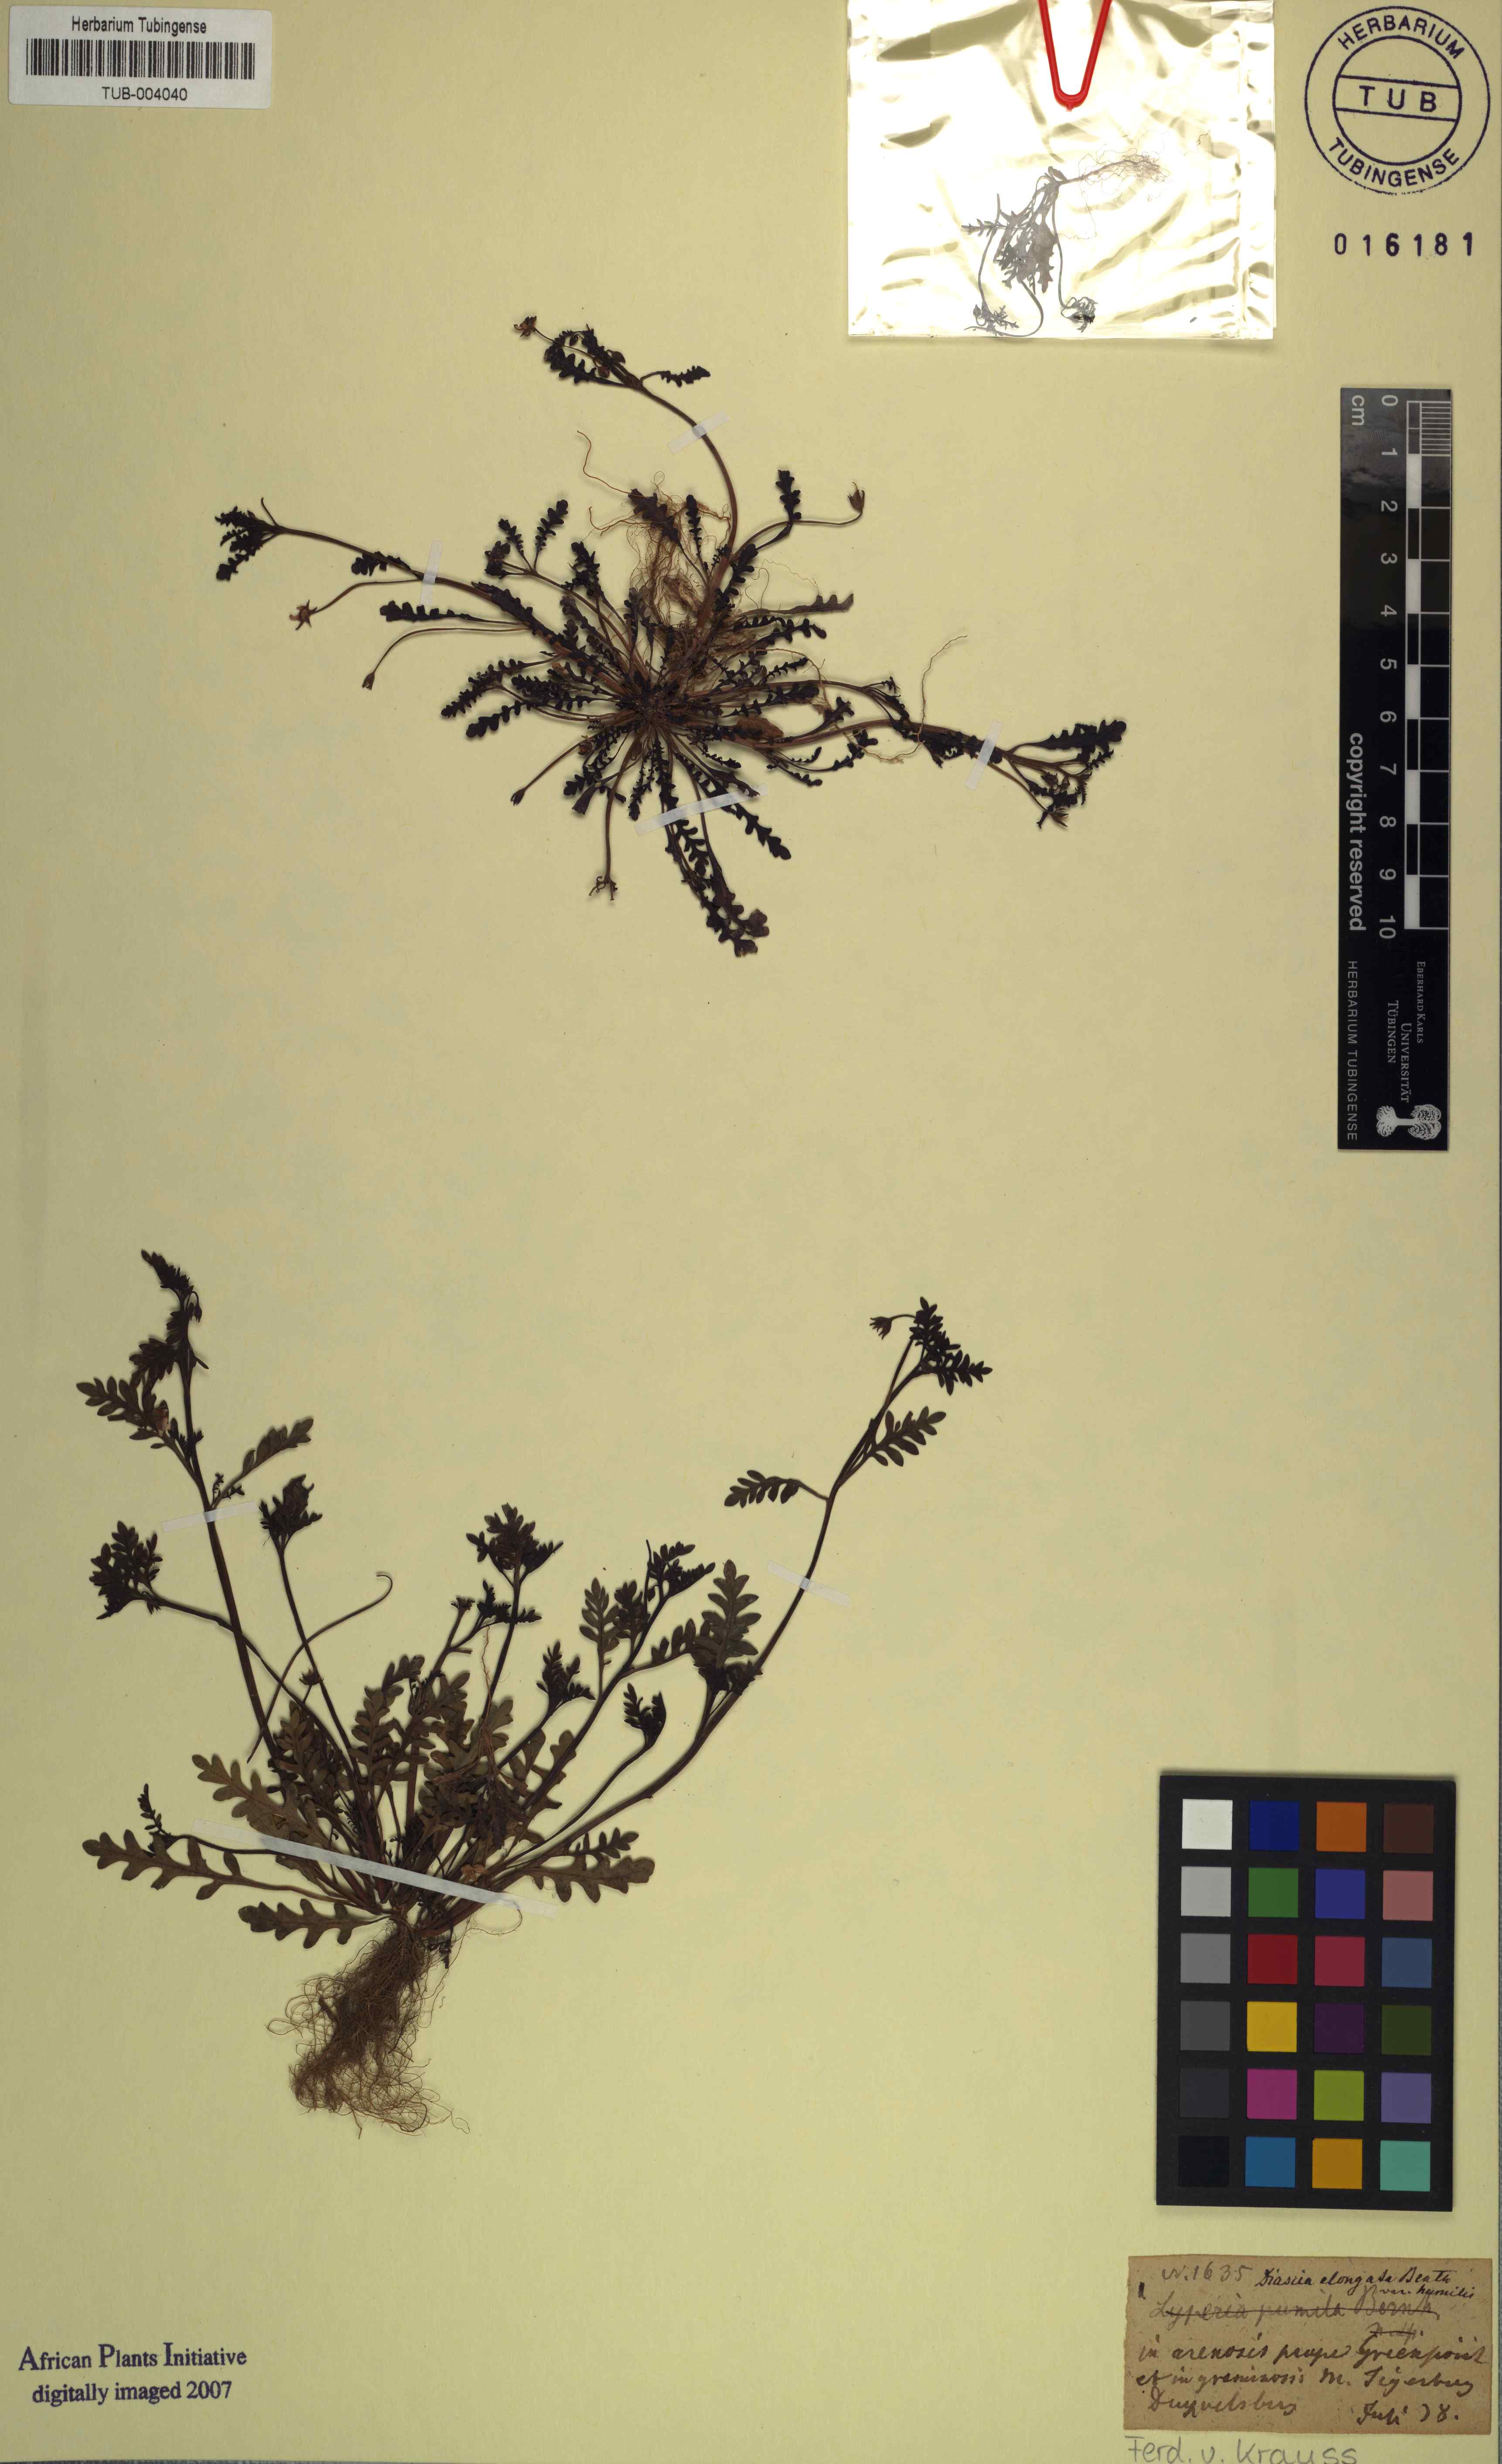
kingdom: Plantae
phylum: Tracheophyta
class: Magnoliopsida
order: Lamiales
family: Scrophulariaceae
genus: Diascia
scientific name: Diascia elongata
